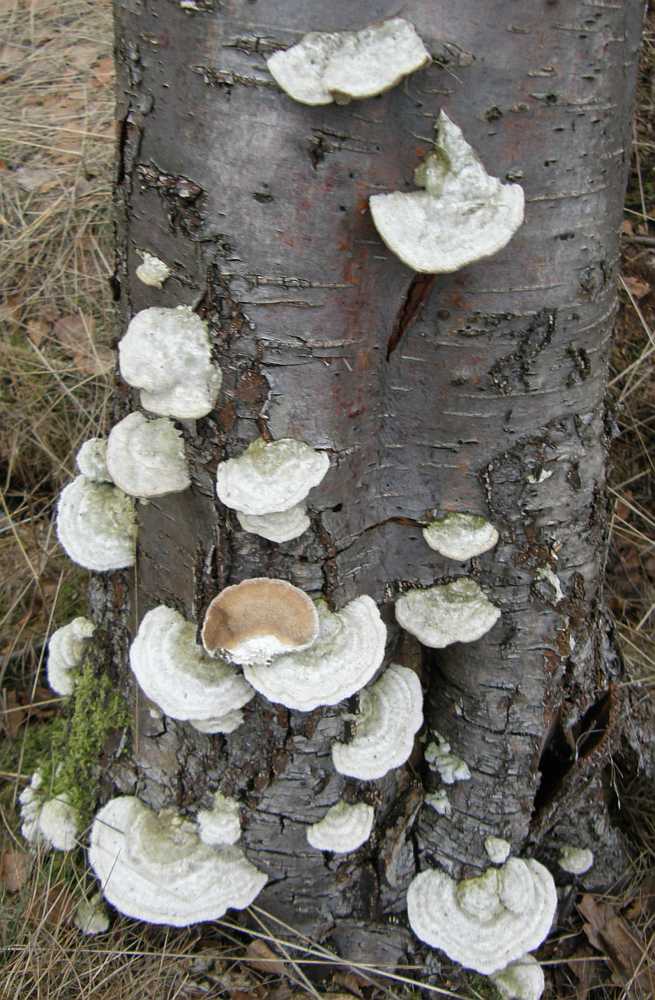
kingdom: Fungi
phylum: Basidiomycota
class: Agaricomycetes
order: Polyporales
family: Polyporaceae
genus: Trametes
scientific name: Trametes hirsuta
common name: håret læderporesvamp
